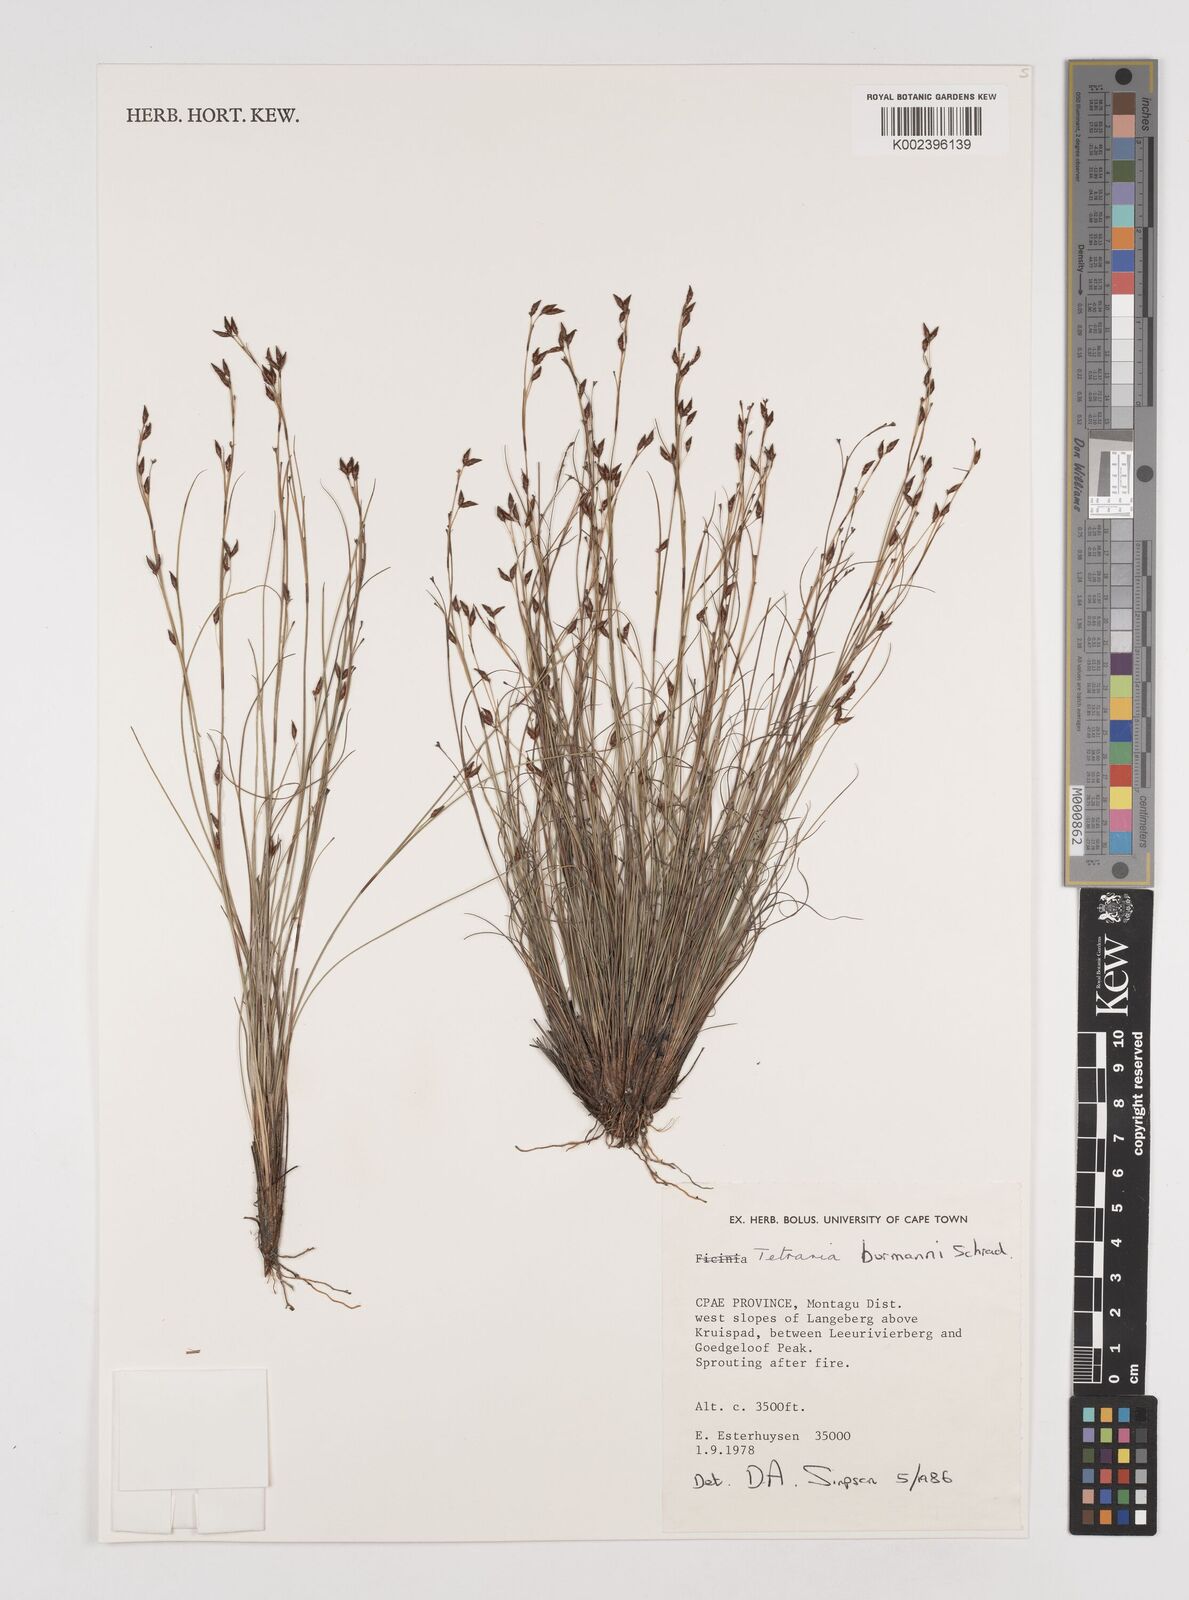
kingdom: Plantae
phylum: Tracheophyta
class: Liliopsida
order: Poales
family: Cyperaceae
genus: Tetraria
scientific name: Tetraria burmanni
